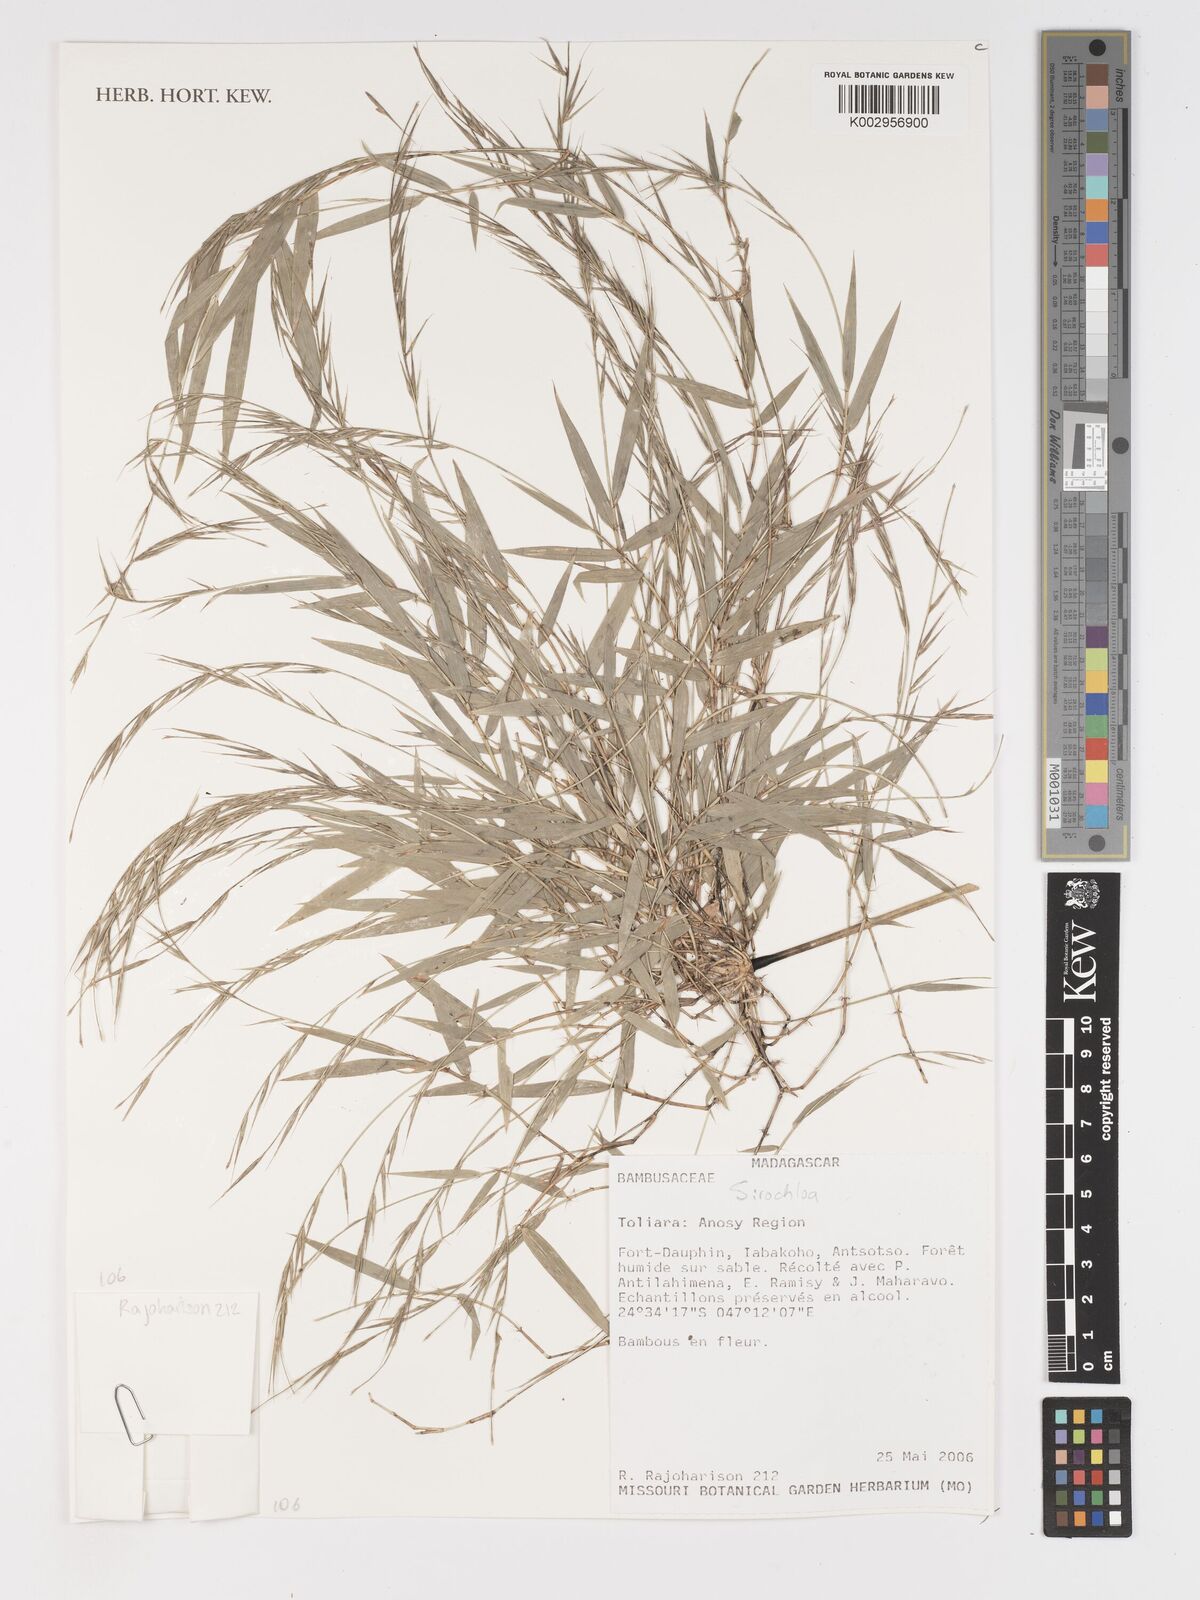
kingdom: Plantae
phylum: Tracheophyta
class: Liliopsida
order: Poales
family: Poaceae
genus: Sirochloa
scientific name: Sirochloa
